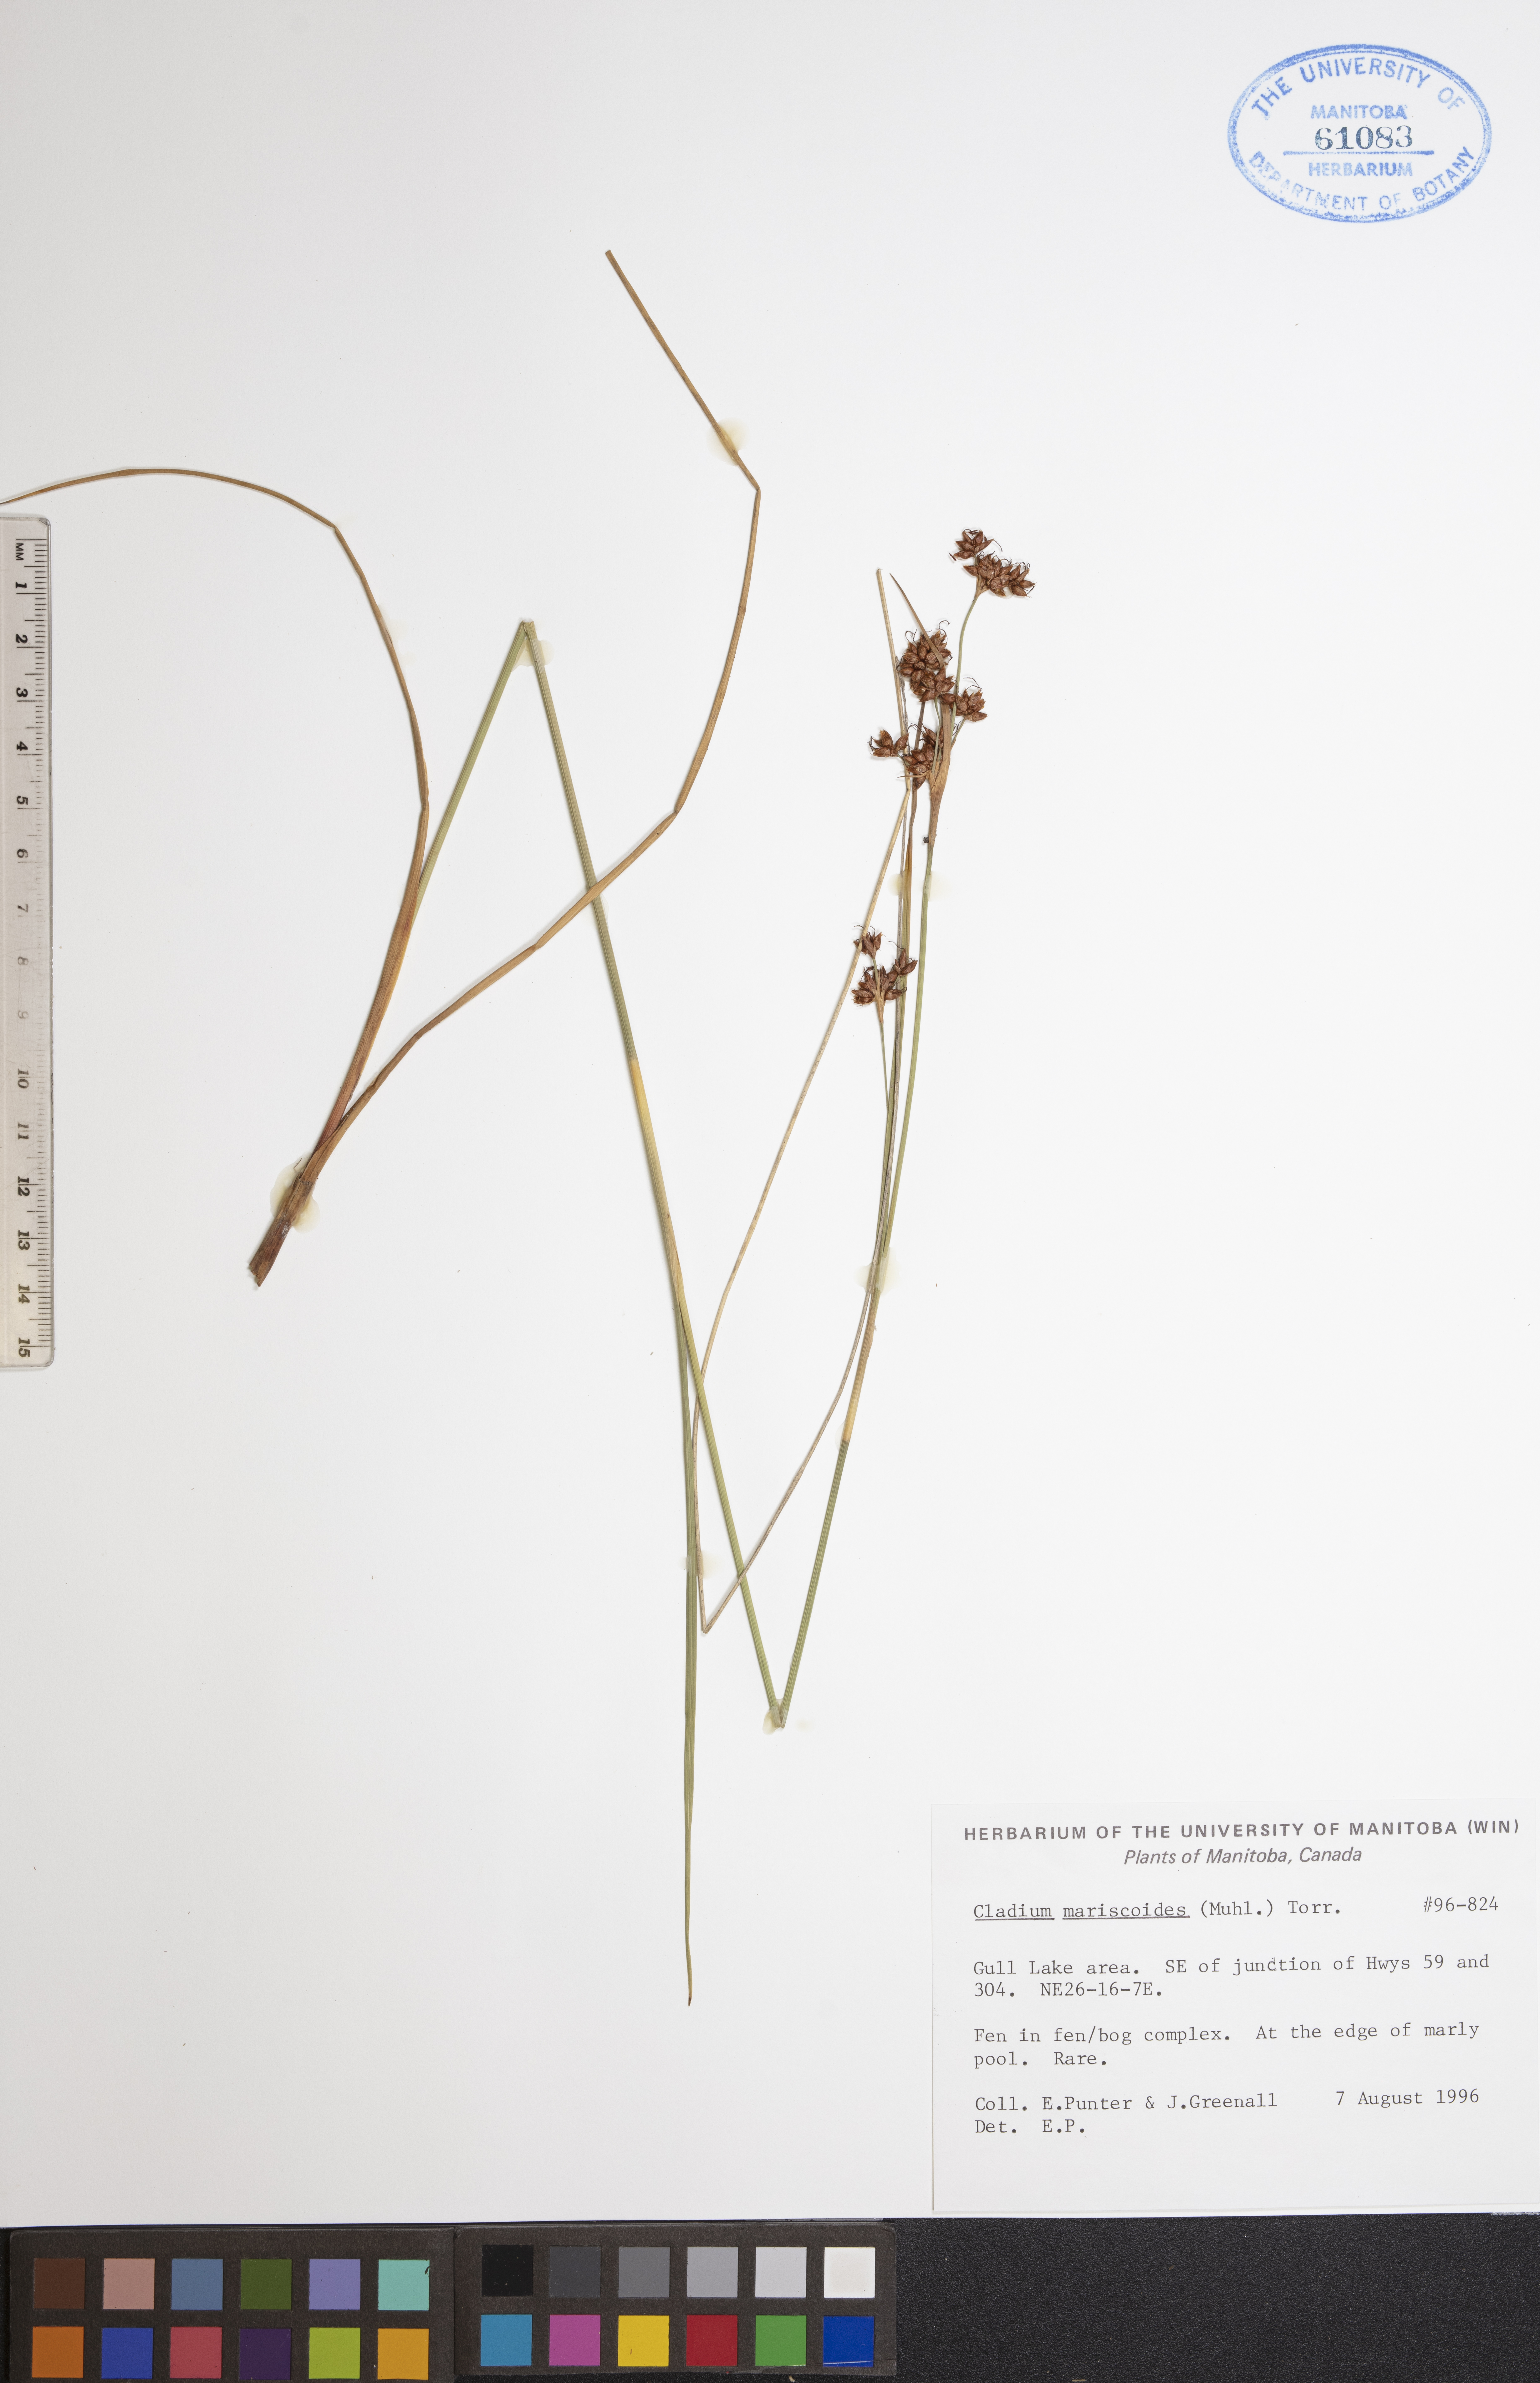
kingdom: Plantae
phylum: Tracheophyta
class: Liliopsida
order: Poales
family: Cyperaceae
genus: Cladium
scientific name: Cladium mariscoides
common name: Smooth sawgrass
